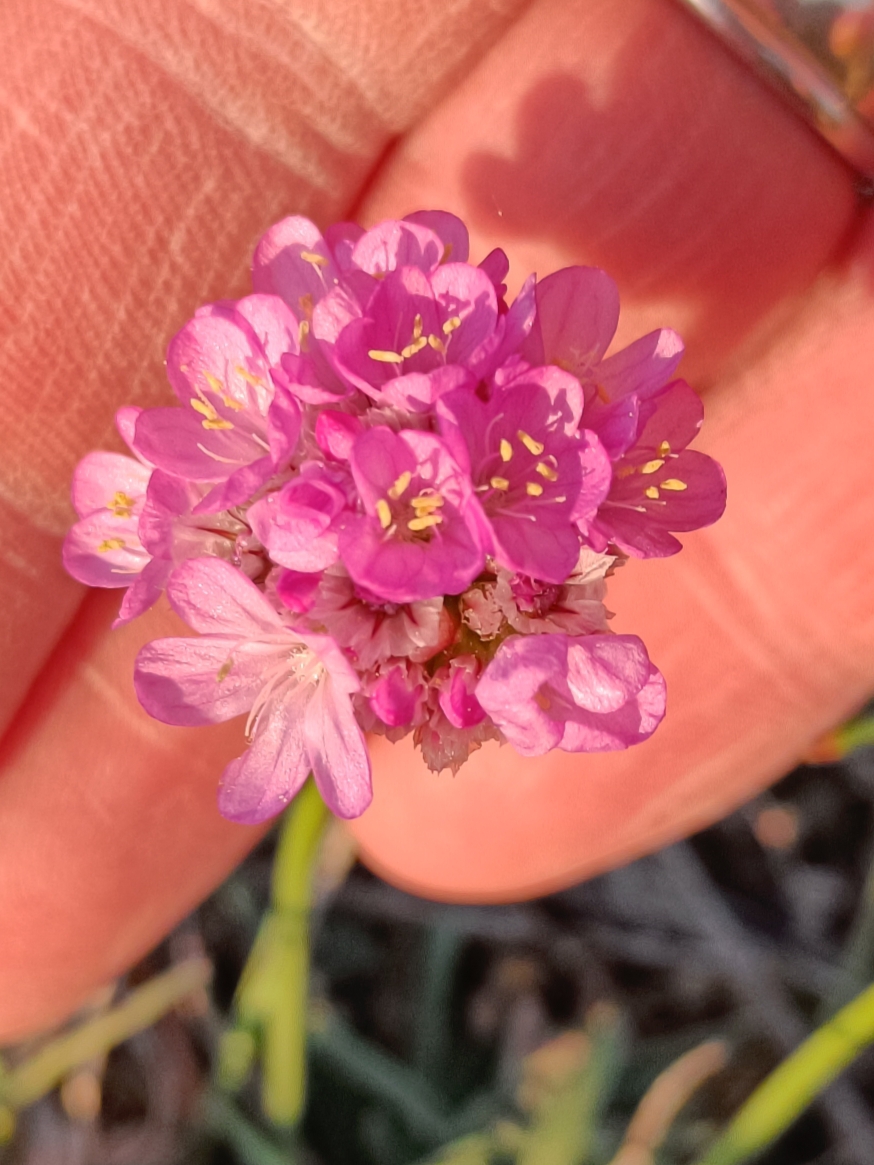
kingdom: Plantae
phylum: Tracheophyta
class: Magnoliopsida
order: Caryophyllales
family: Plumbaginaceae
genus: Armeria
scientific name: Armeria maritima
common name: Engelskgræs
